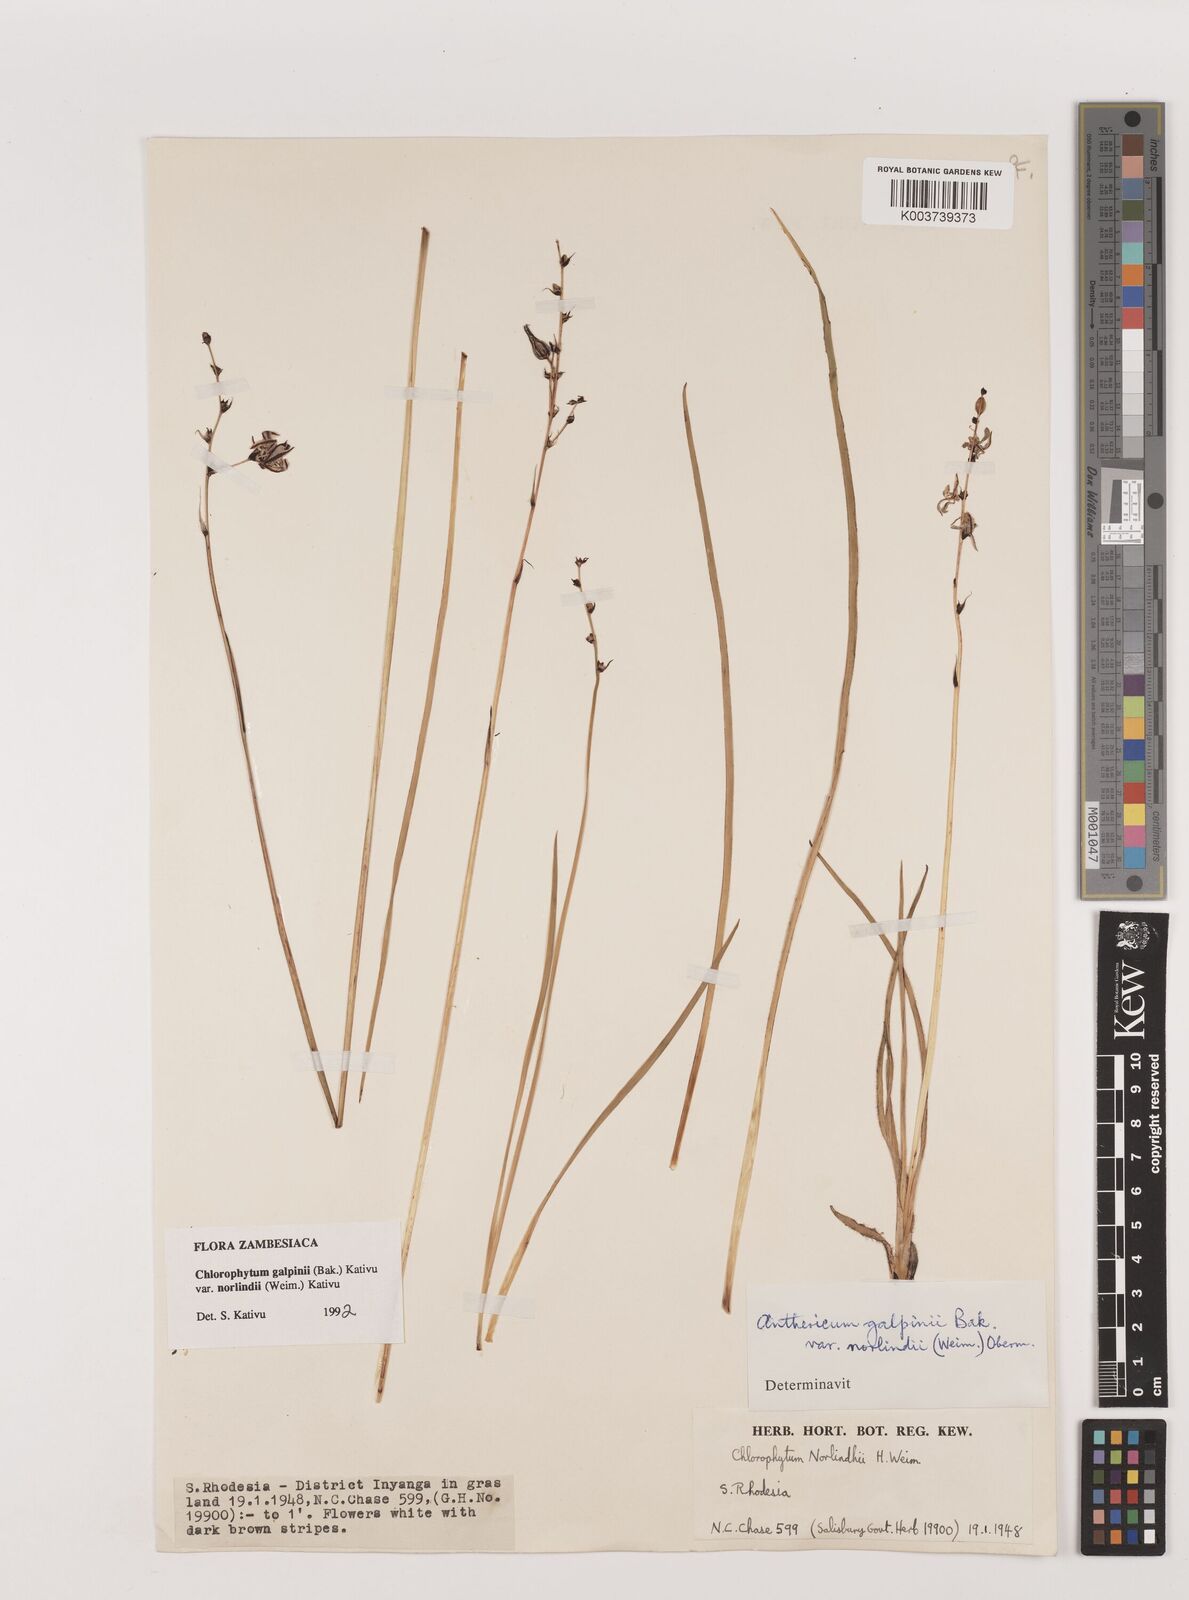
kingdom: Plantae
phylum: Tracheophyta
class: Liliopsida
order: Asparagales
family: Asparagaceae
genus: Chlorophytum
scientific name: Chlorophytum galpinii
